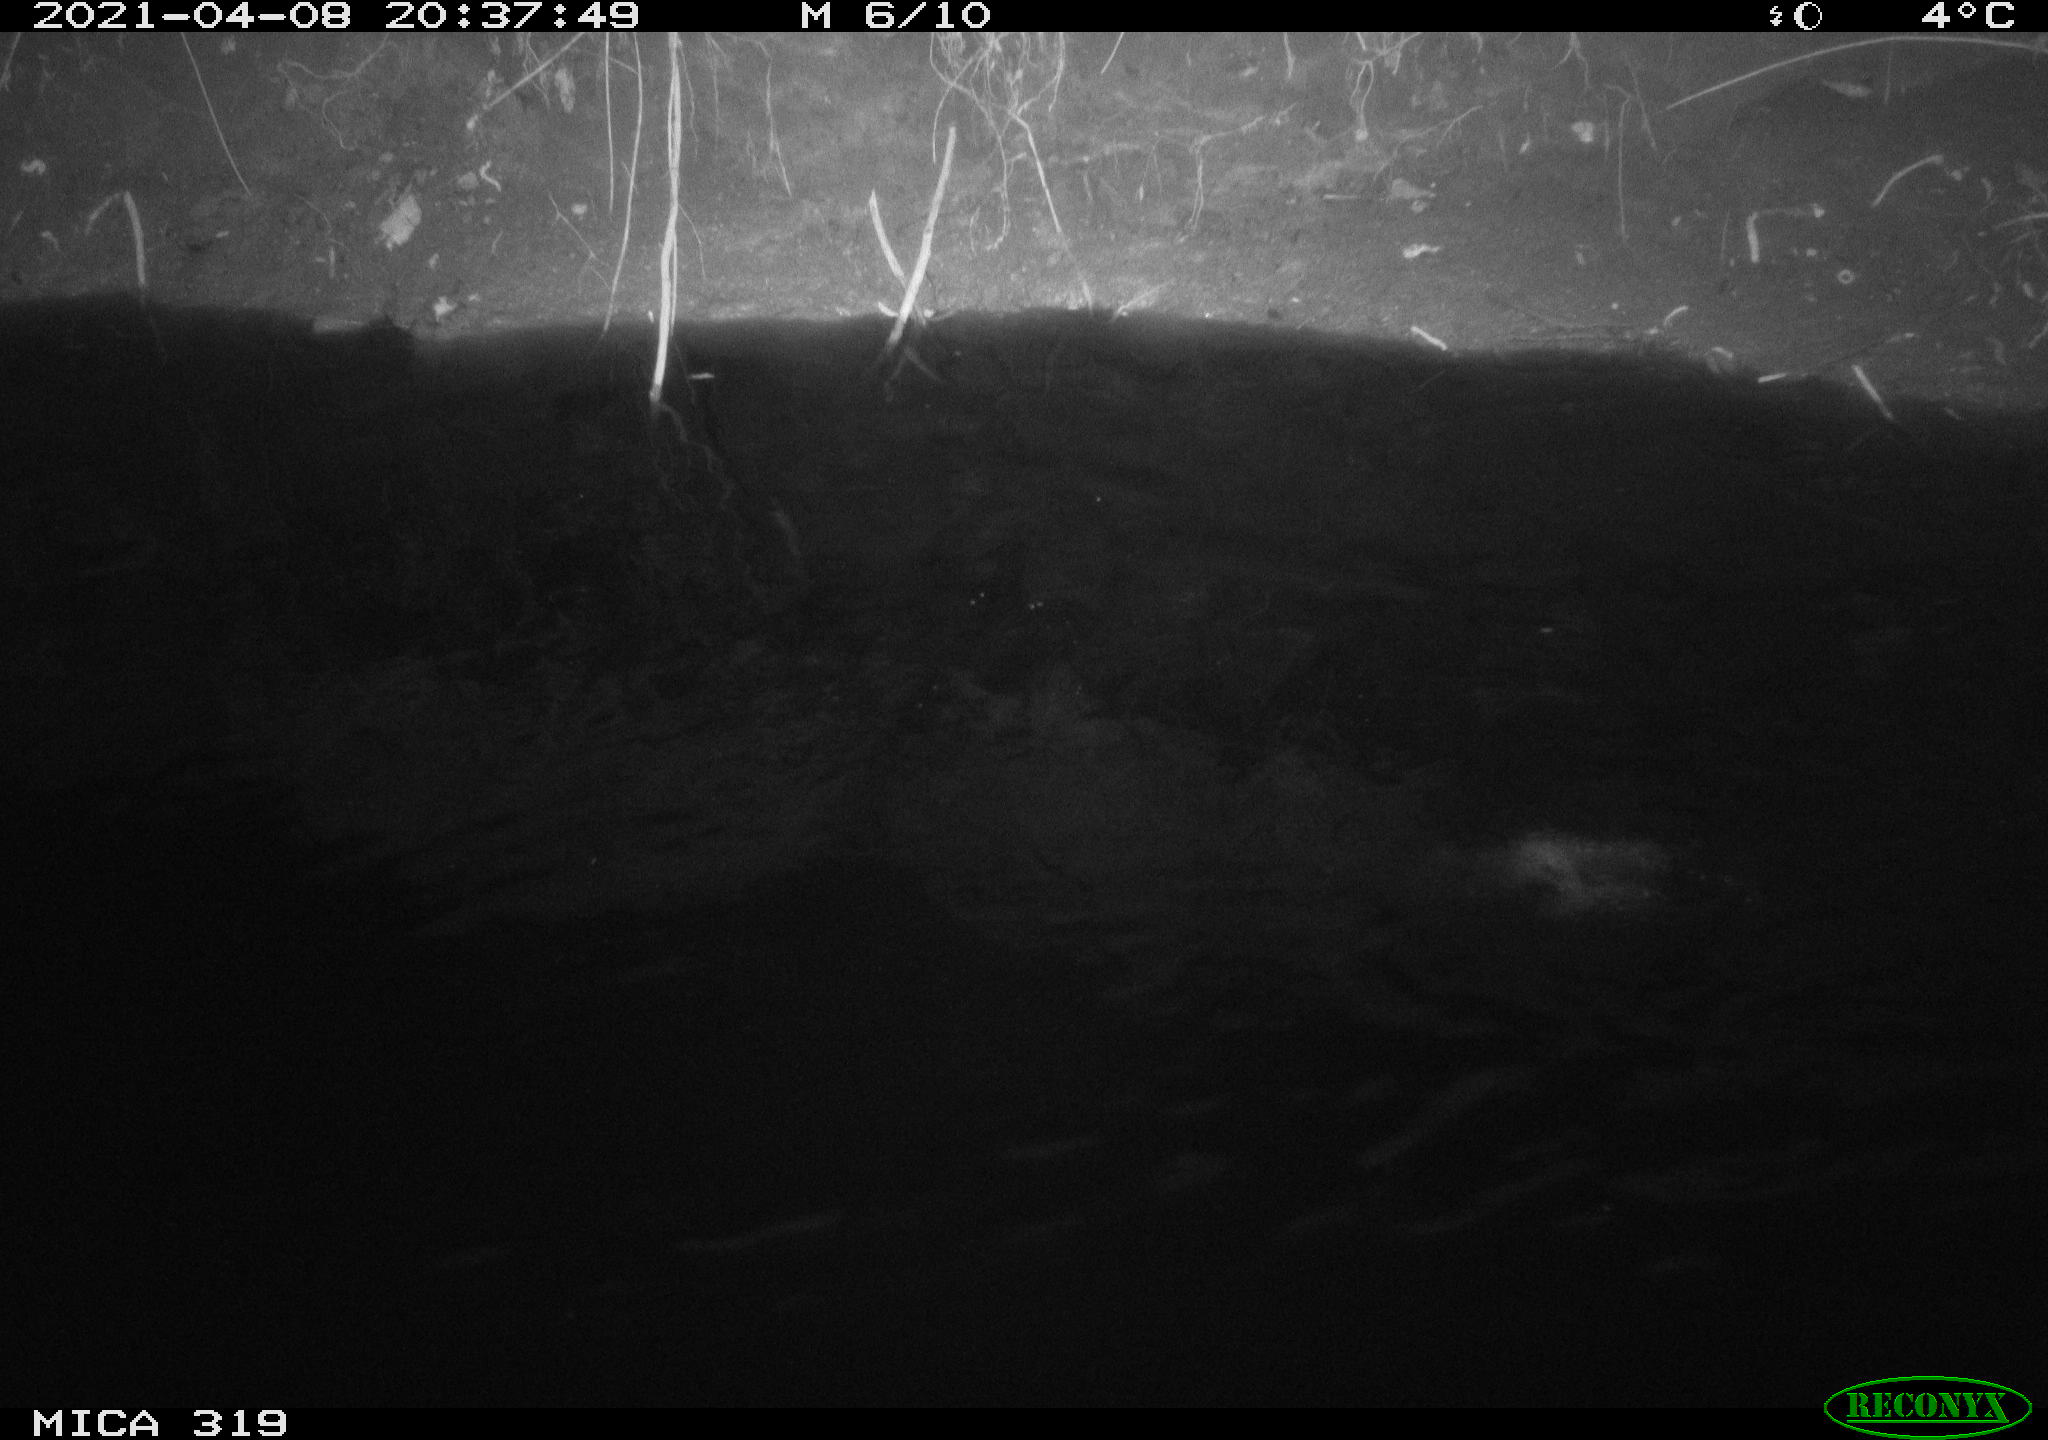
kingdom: Animalia
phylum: Chordata
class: Aves
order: Anseriformes
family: Anatidae
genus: Anas
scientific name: Anas platyrhynchos
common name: Mallard
